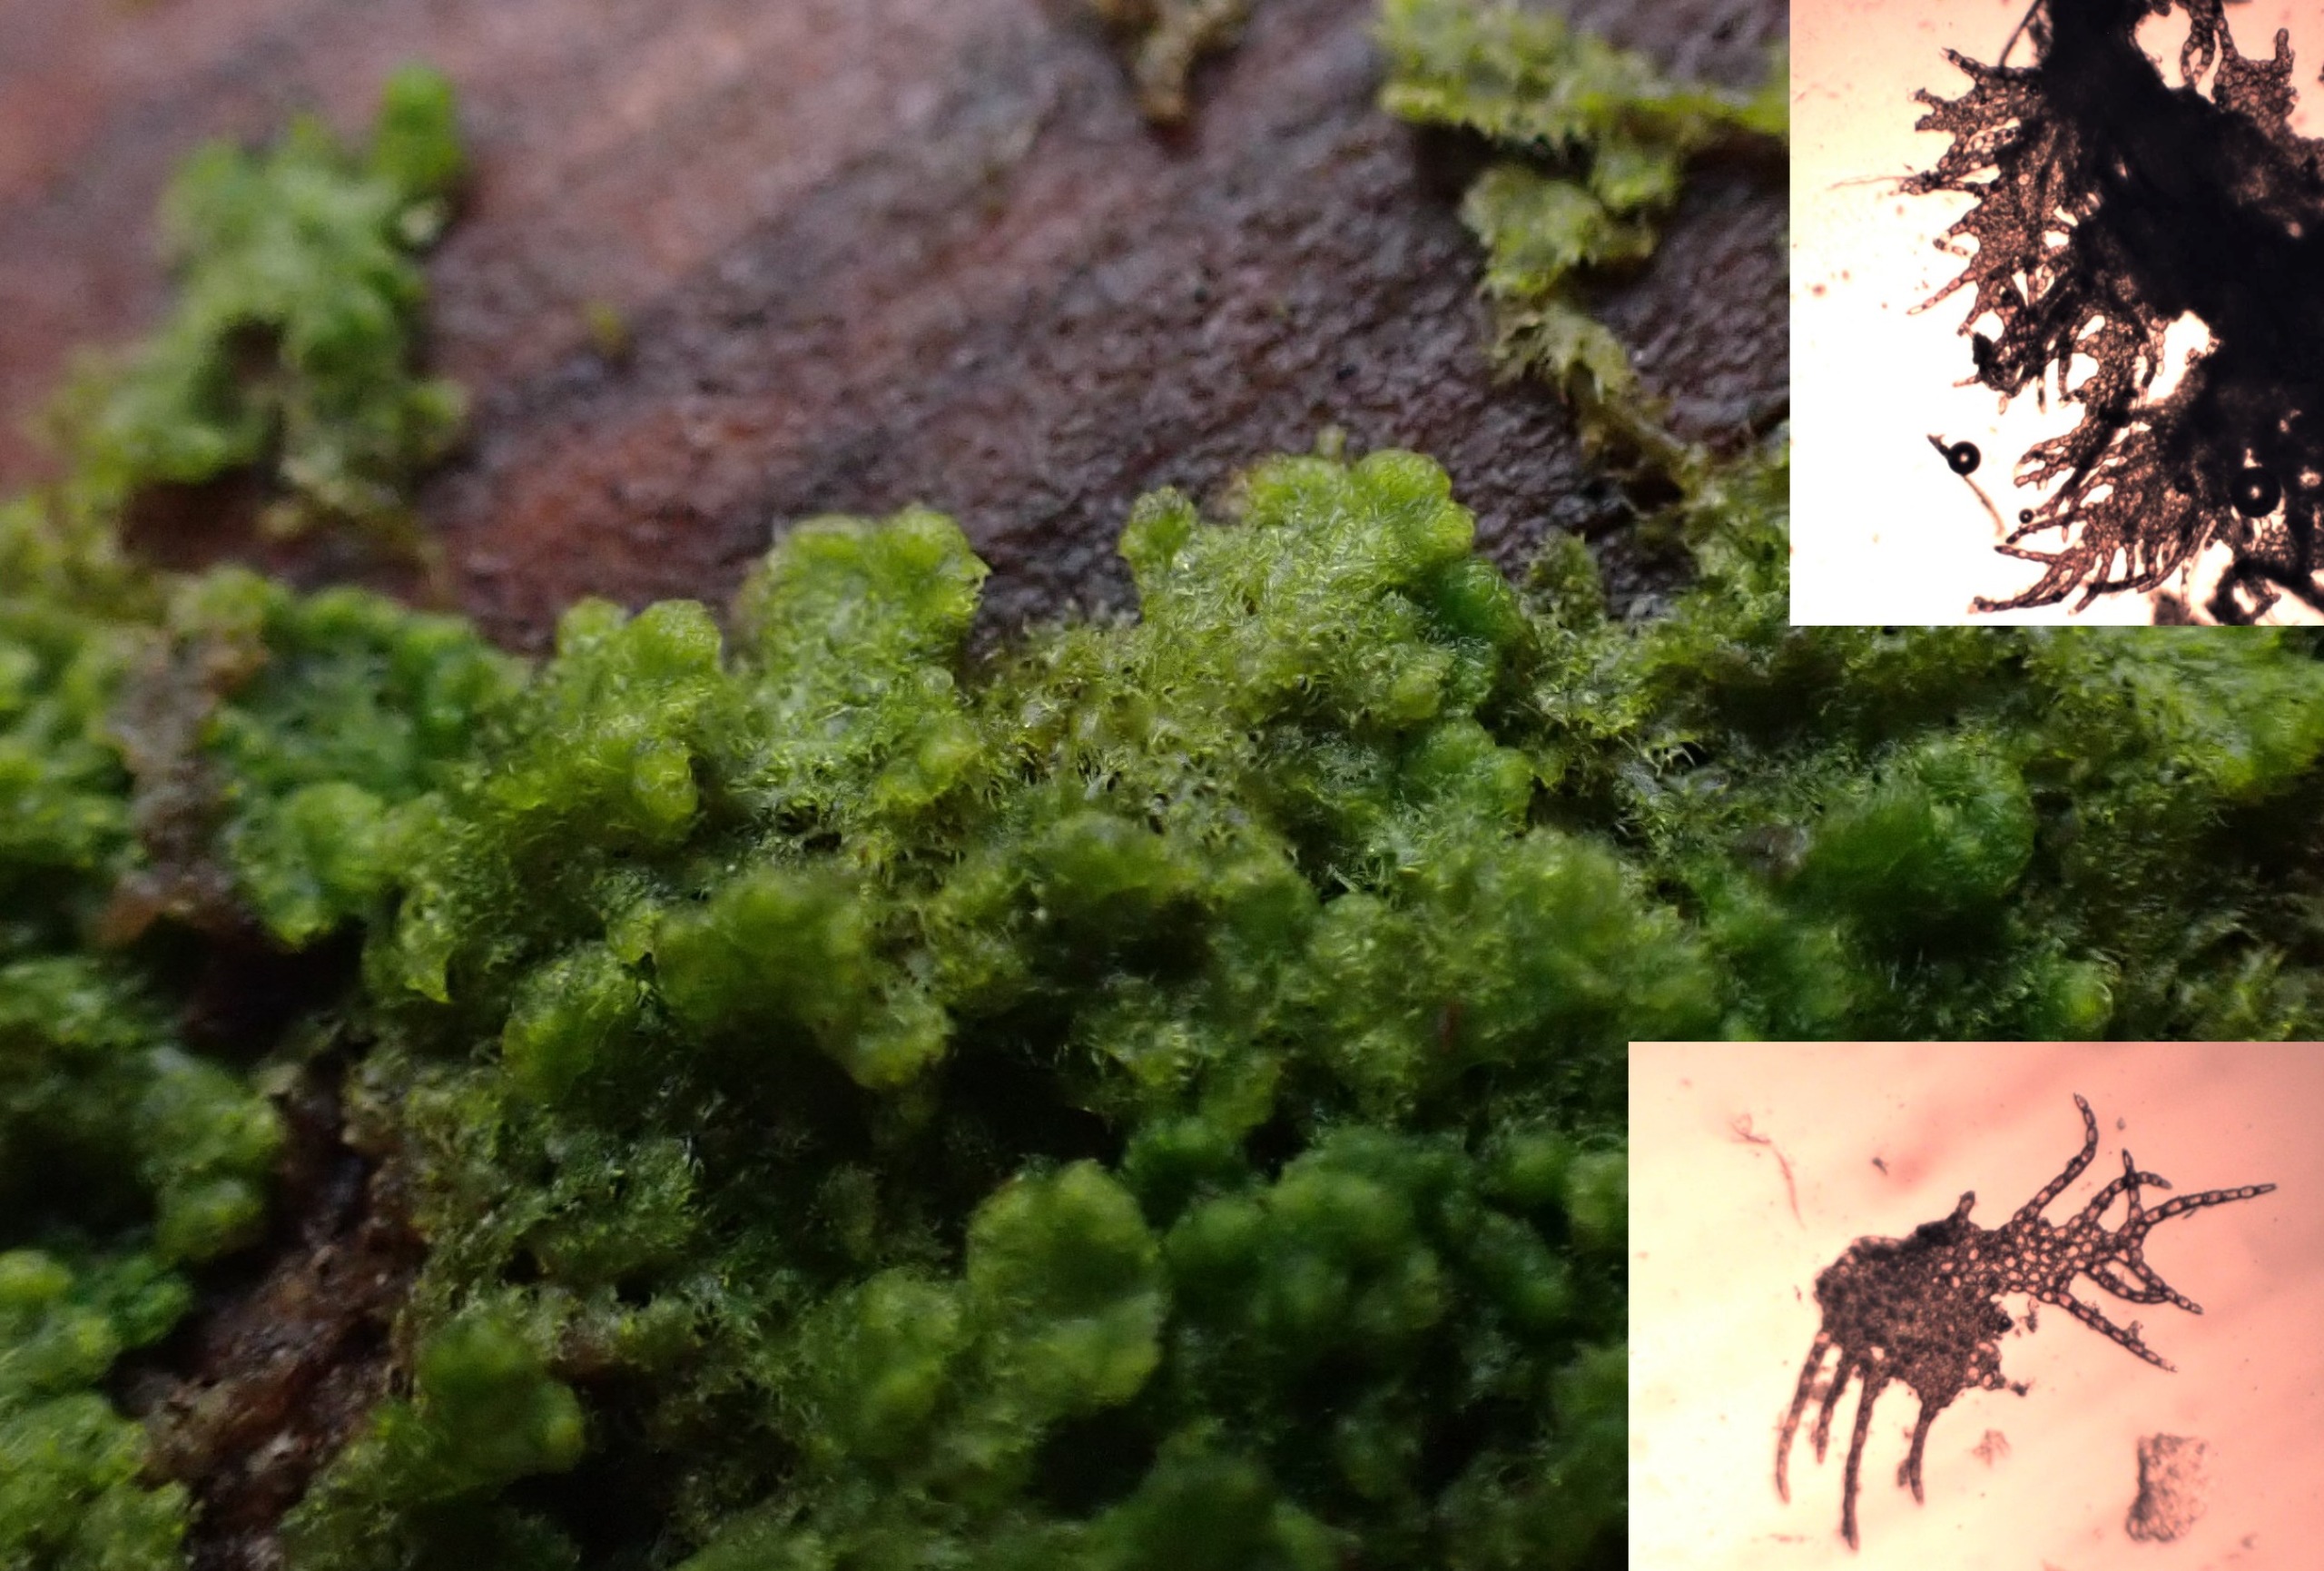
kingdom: Plantae
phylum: Marchantiophyta
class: Jungermanniopsida
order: Ptilidiales
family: Ptilidiaceae
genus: Ptilidium
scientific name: Ptilidium pulcherrimum
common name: Stub-frynsemos
